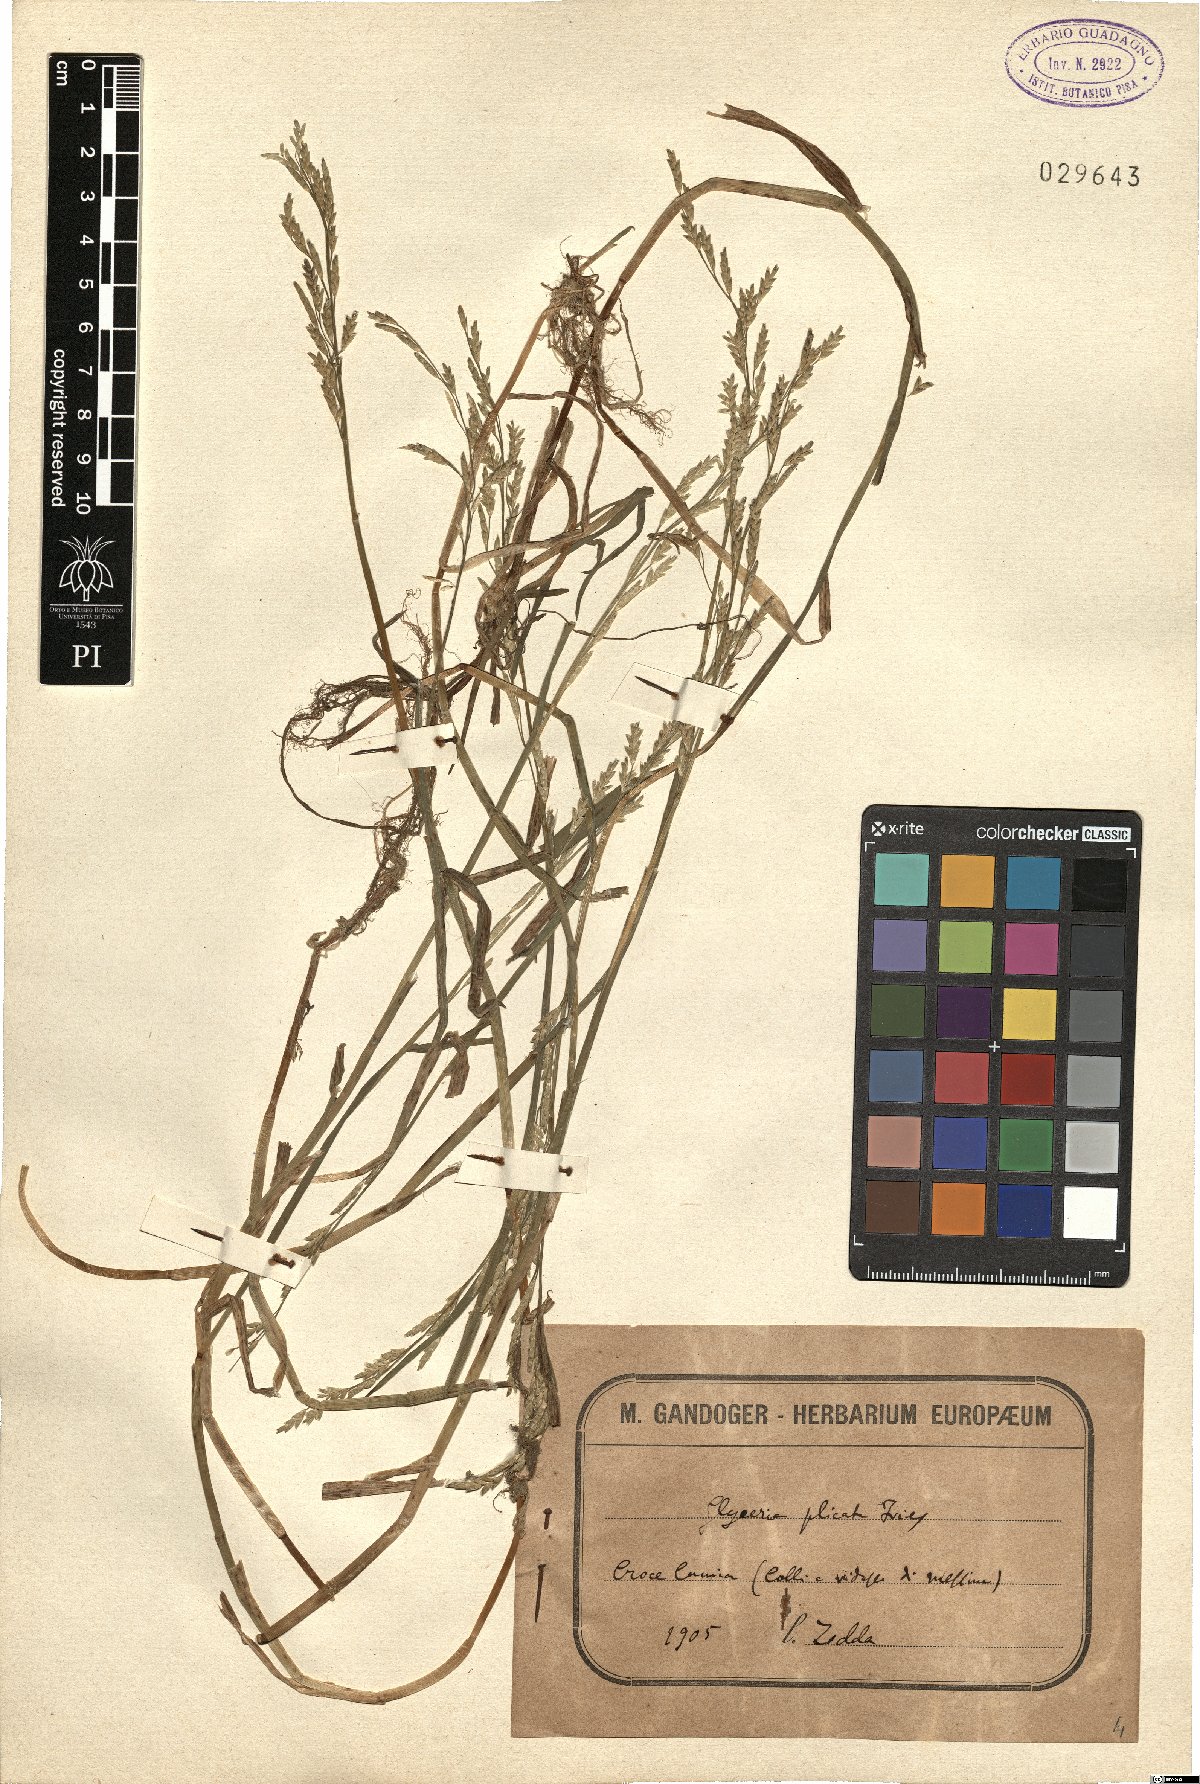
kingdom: Plantae
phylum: Tracheophyta
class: Liliopsida
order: Poales
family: Poaceae
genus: Glyceria
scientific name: Glyceria notata
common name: Plicate sweet-grass
